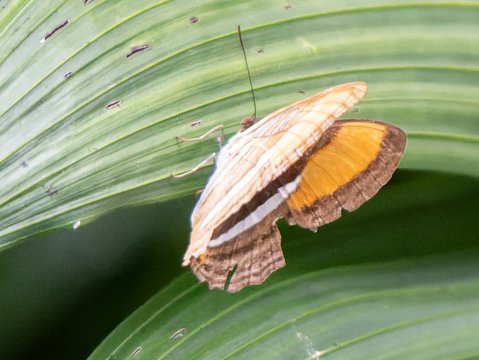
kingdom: Animalia
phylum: Arthropoda
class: Insecta
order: Lepidoptera
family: Nymphalidae
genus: Limenitis
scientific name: Limenitis cytherea
